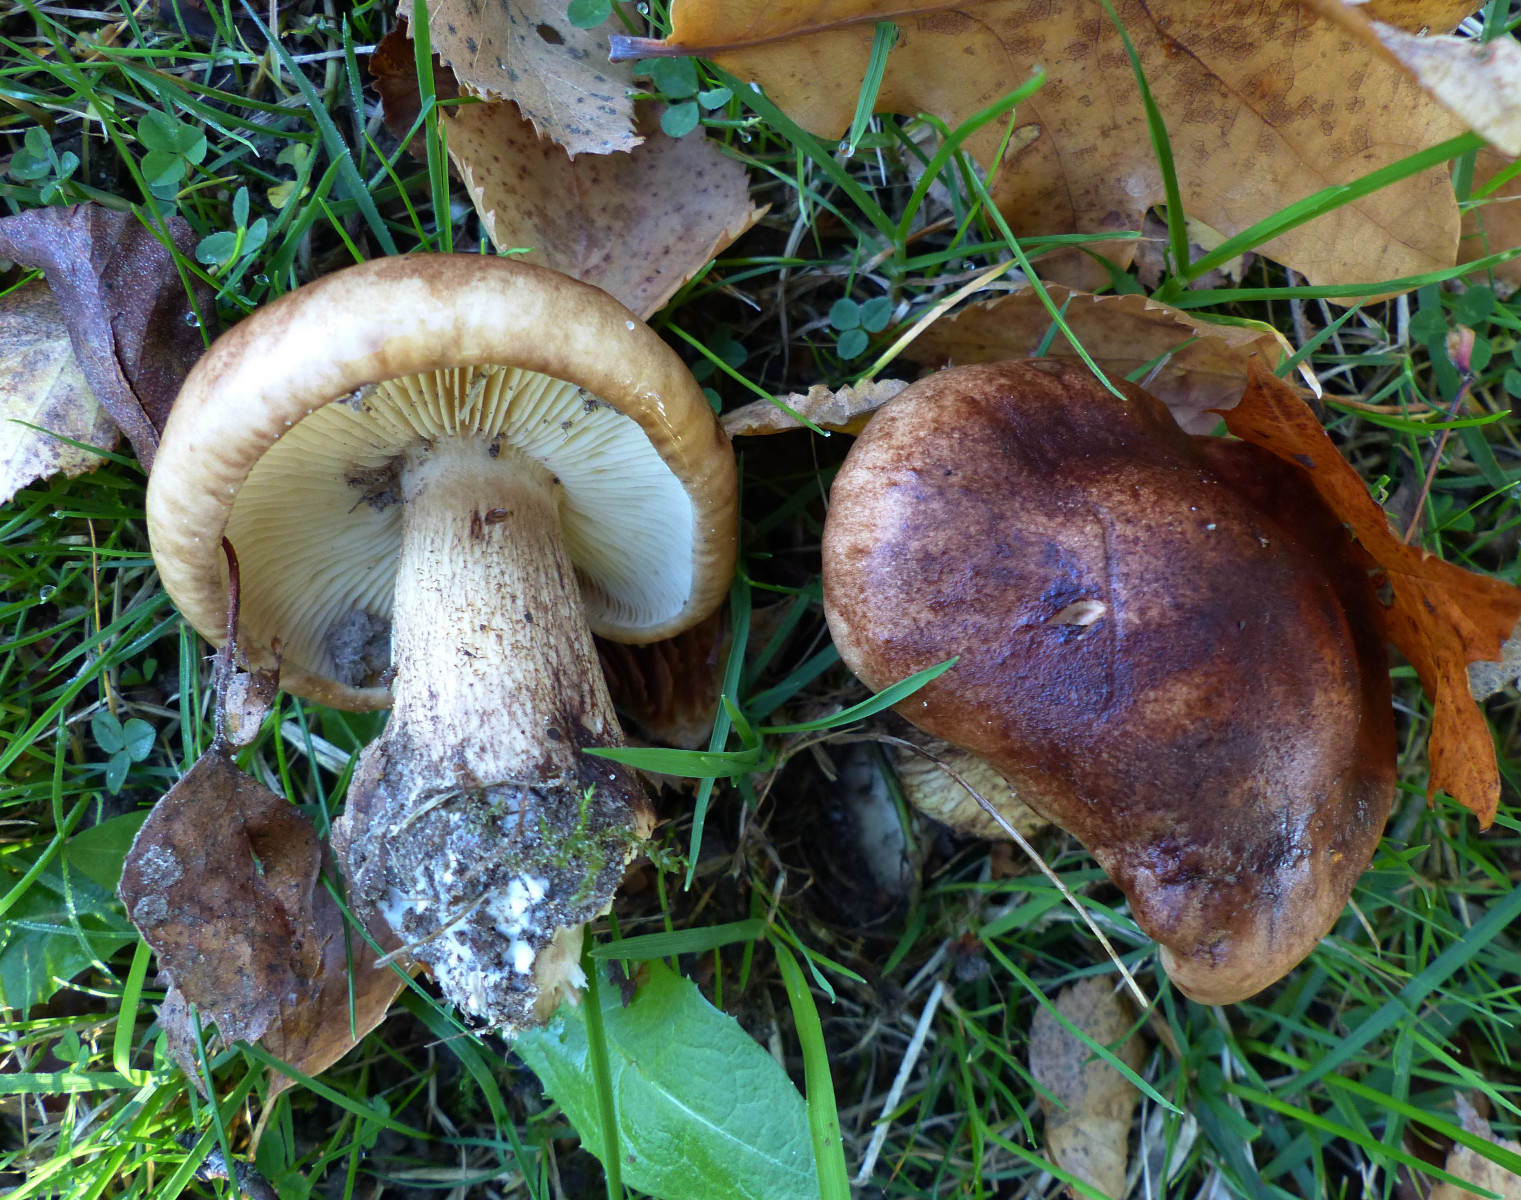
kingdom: Fungi
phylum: Basidiomycota
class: Agaricomycetes
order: Agaricales
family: Tricholomataceae
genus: Tricholoma
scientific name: Tricholoma fulvum
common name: birke-ridderhat
